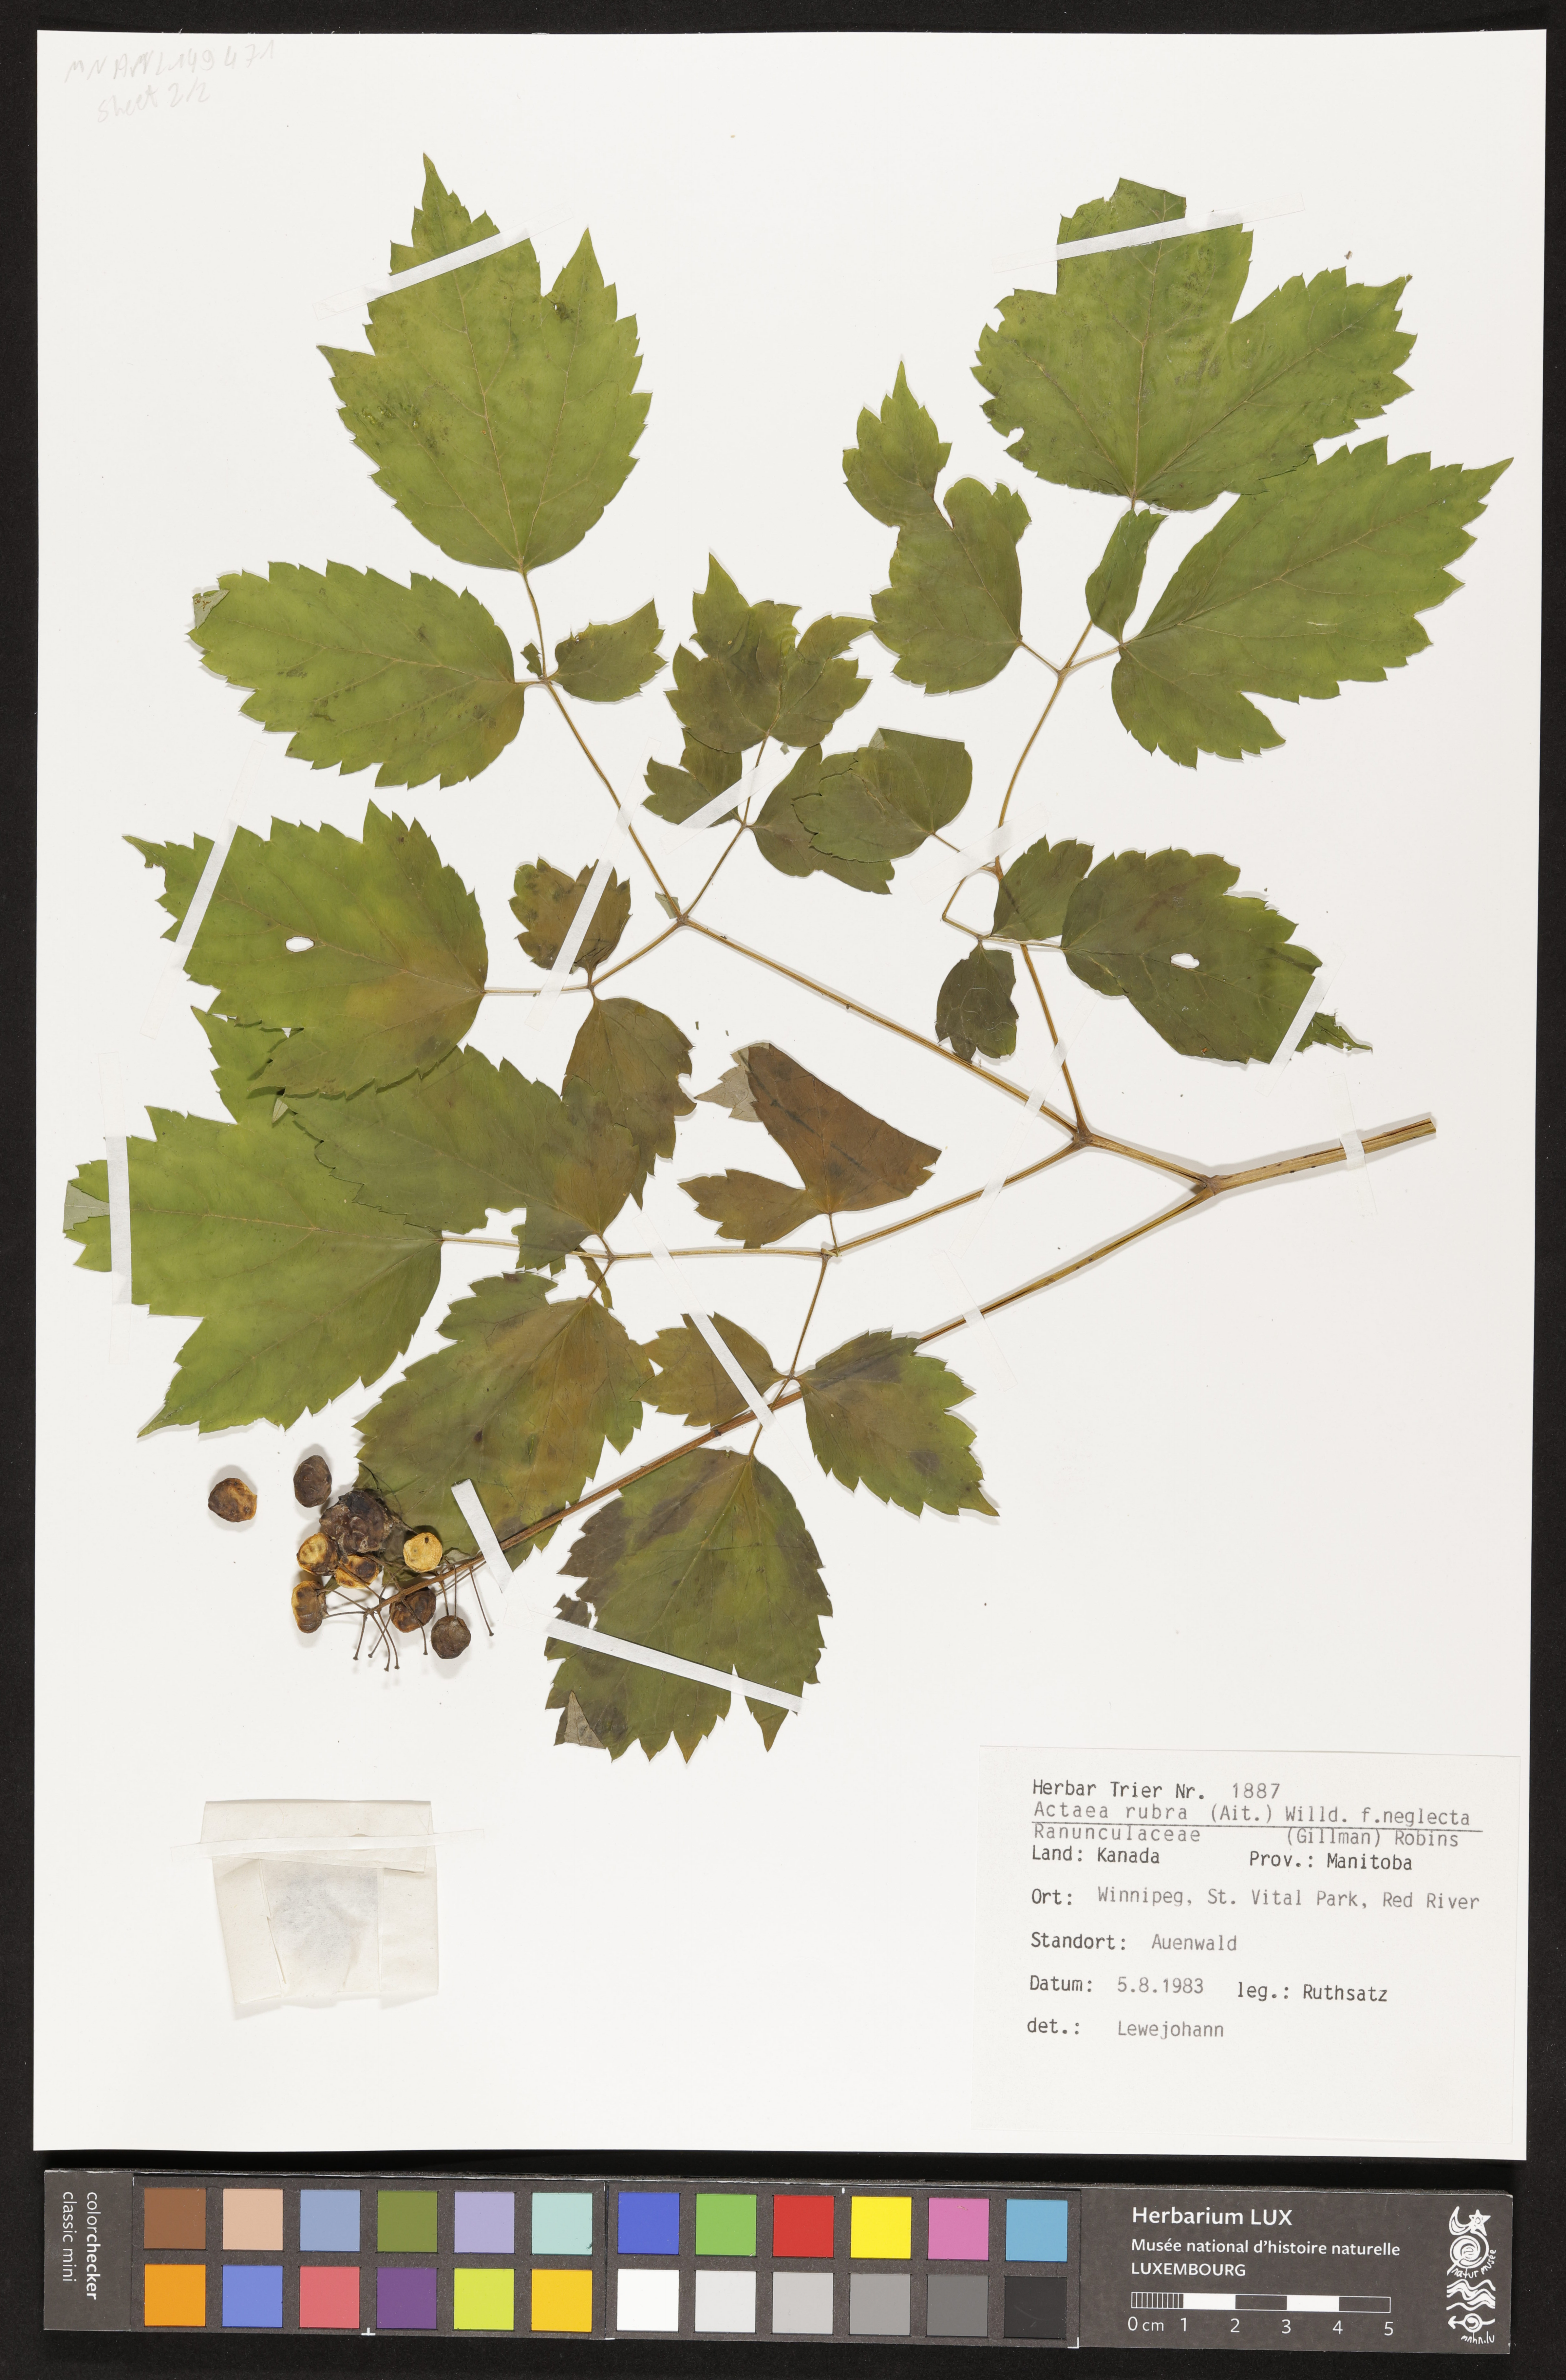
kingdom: Plantae
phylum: Tracheophyta
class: Magnoliopsida
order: Ranunculales
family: Ranunculaceae
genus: Actaea
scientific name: Actaea rubra
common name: Red baneberry
